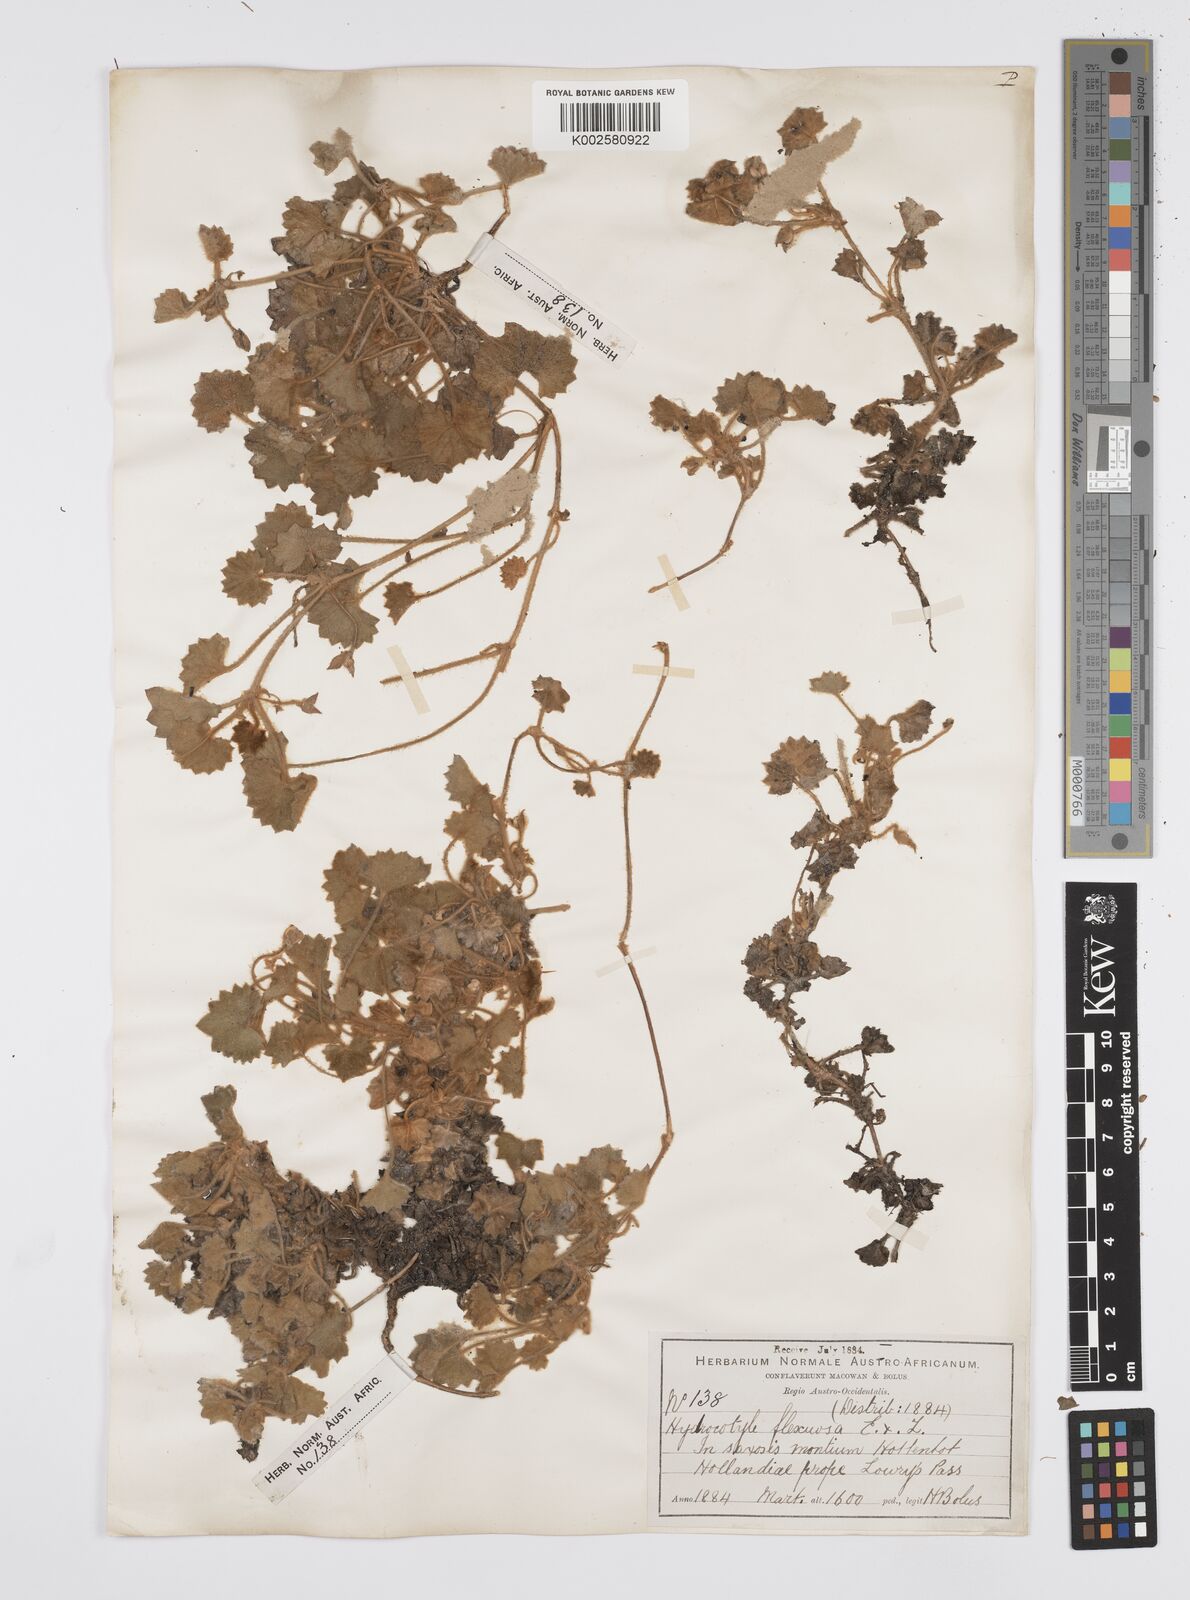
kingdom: Plantae
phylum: Tracheophyta
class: Magnoliopsida
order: Apiales
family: Apiaceae
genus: Centella
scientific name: Centella flexuosa
